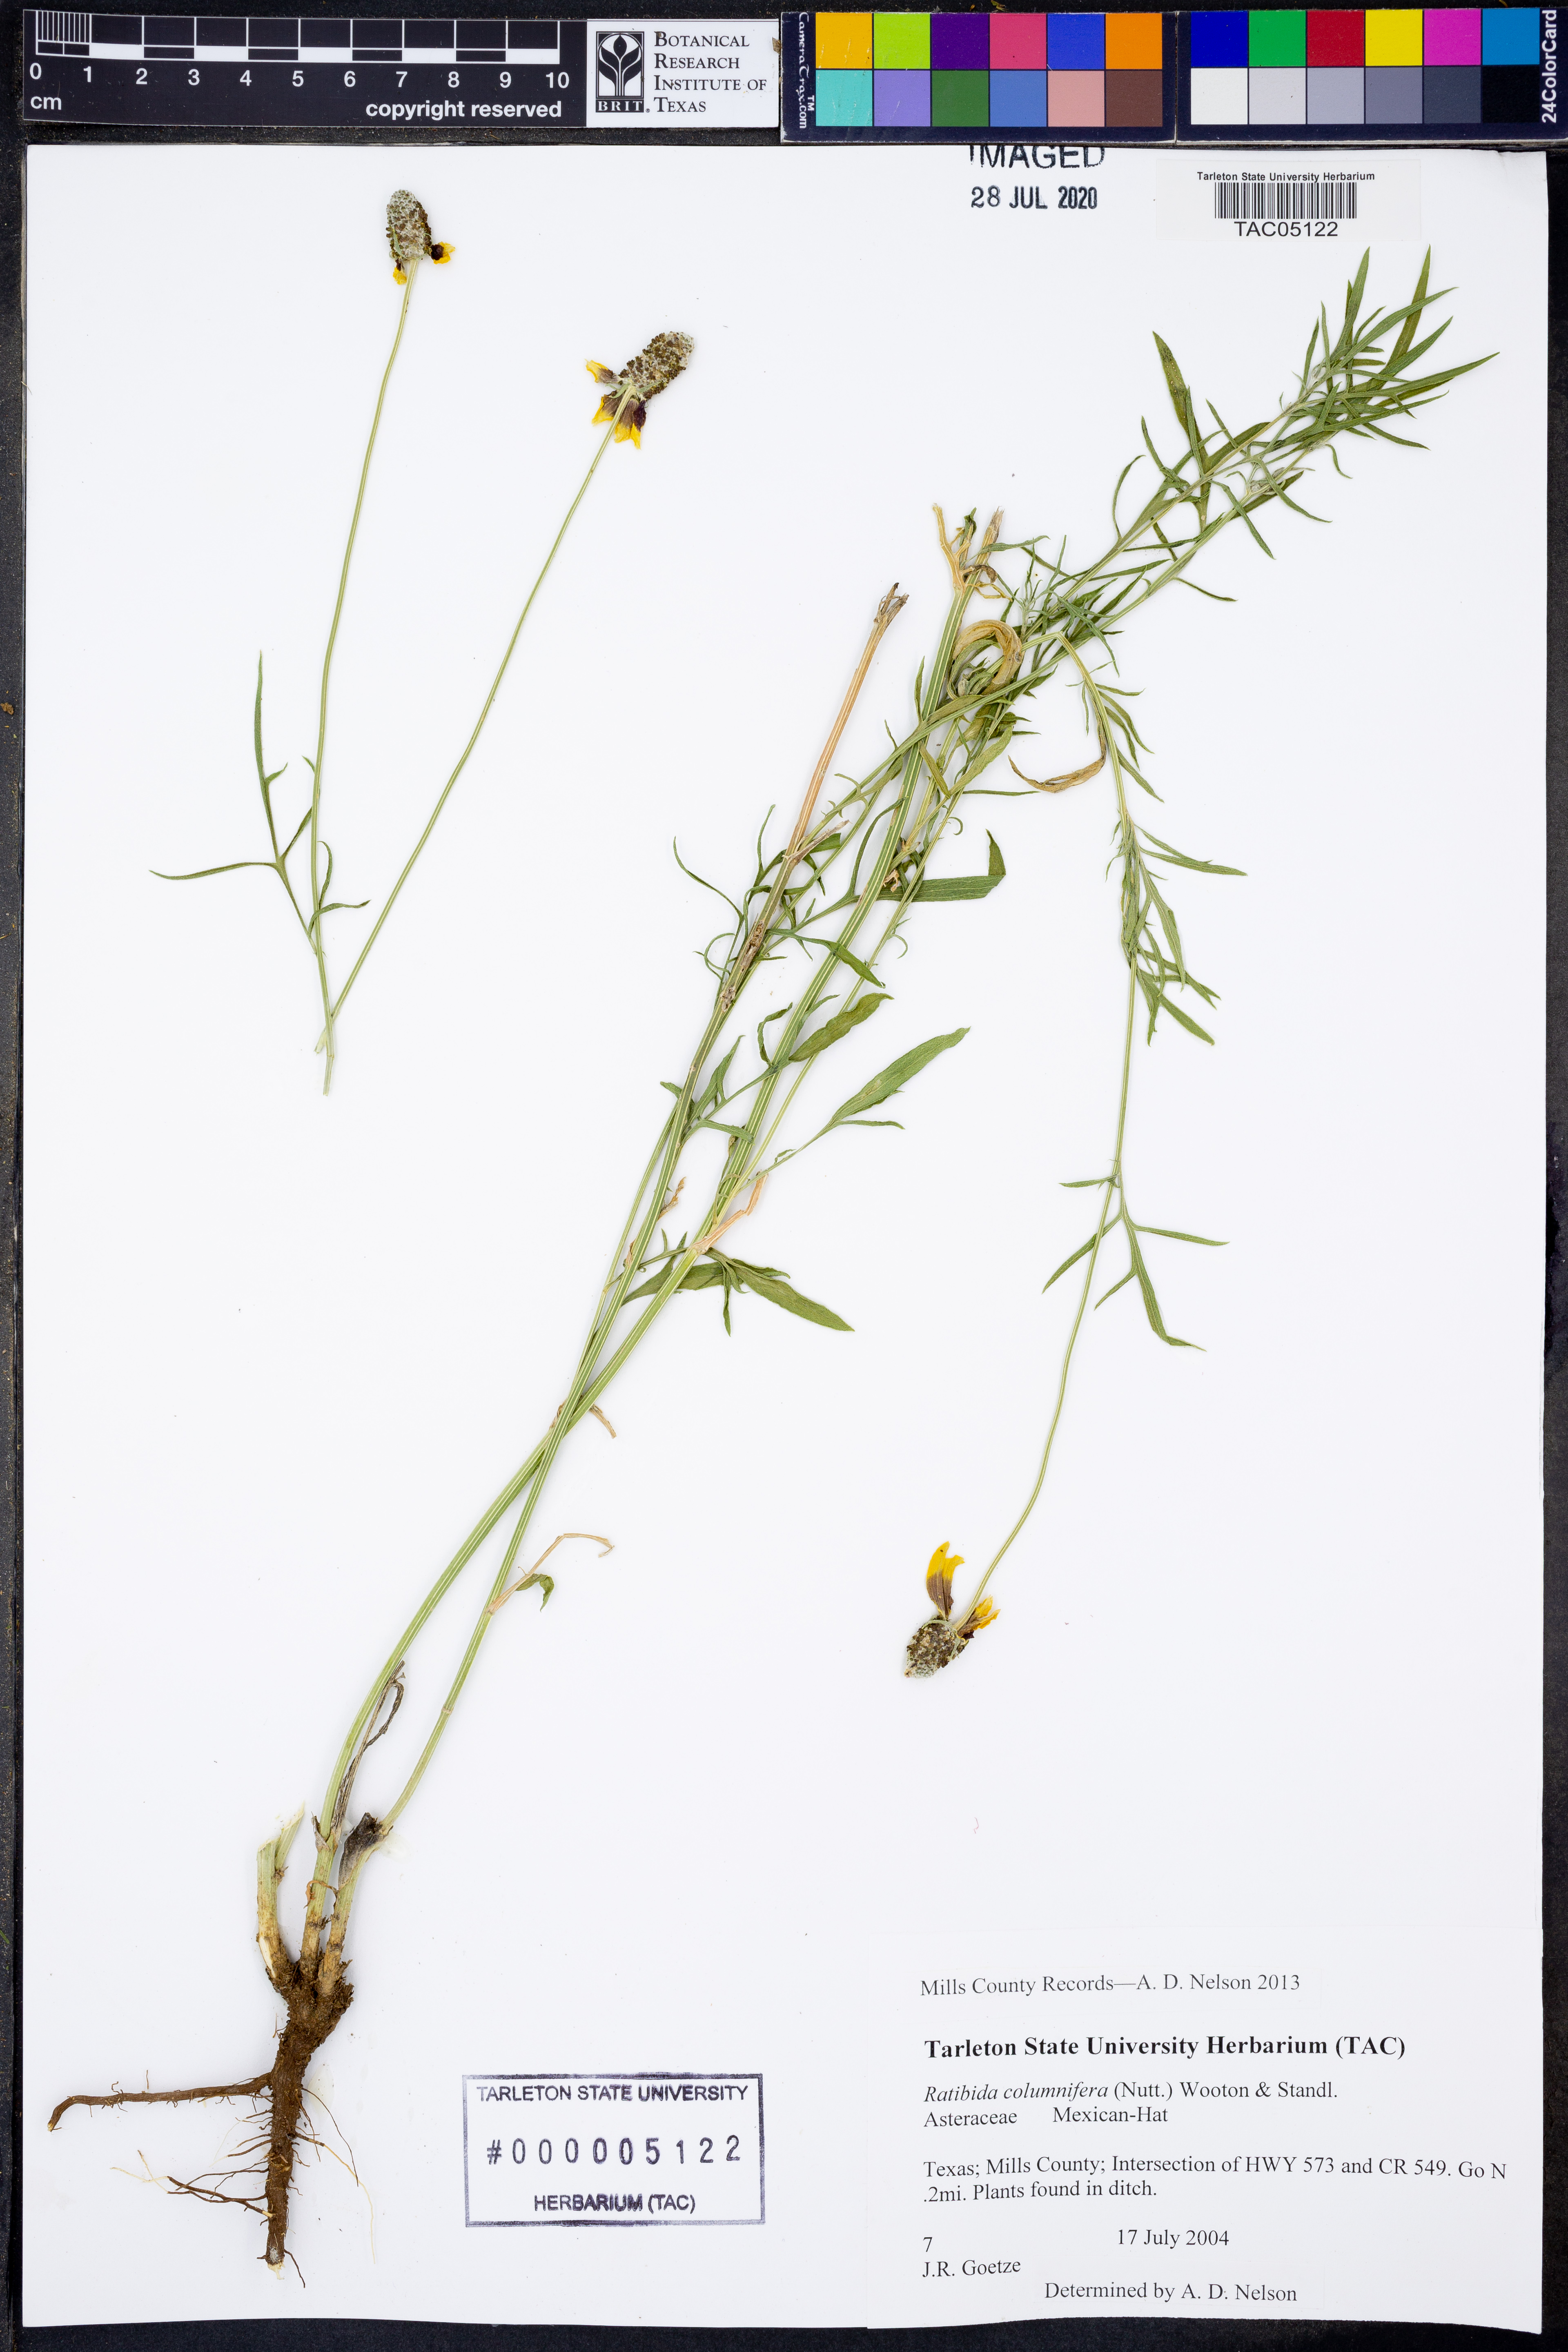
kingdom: Plantae
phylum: Tracheophyta
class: Magnoliopsida
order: Asterales
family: Asteraceae
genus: Ratibida
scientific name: Ratibida columnifera
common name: Prairie coneflower
